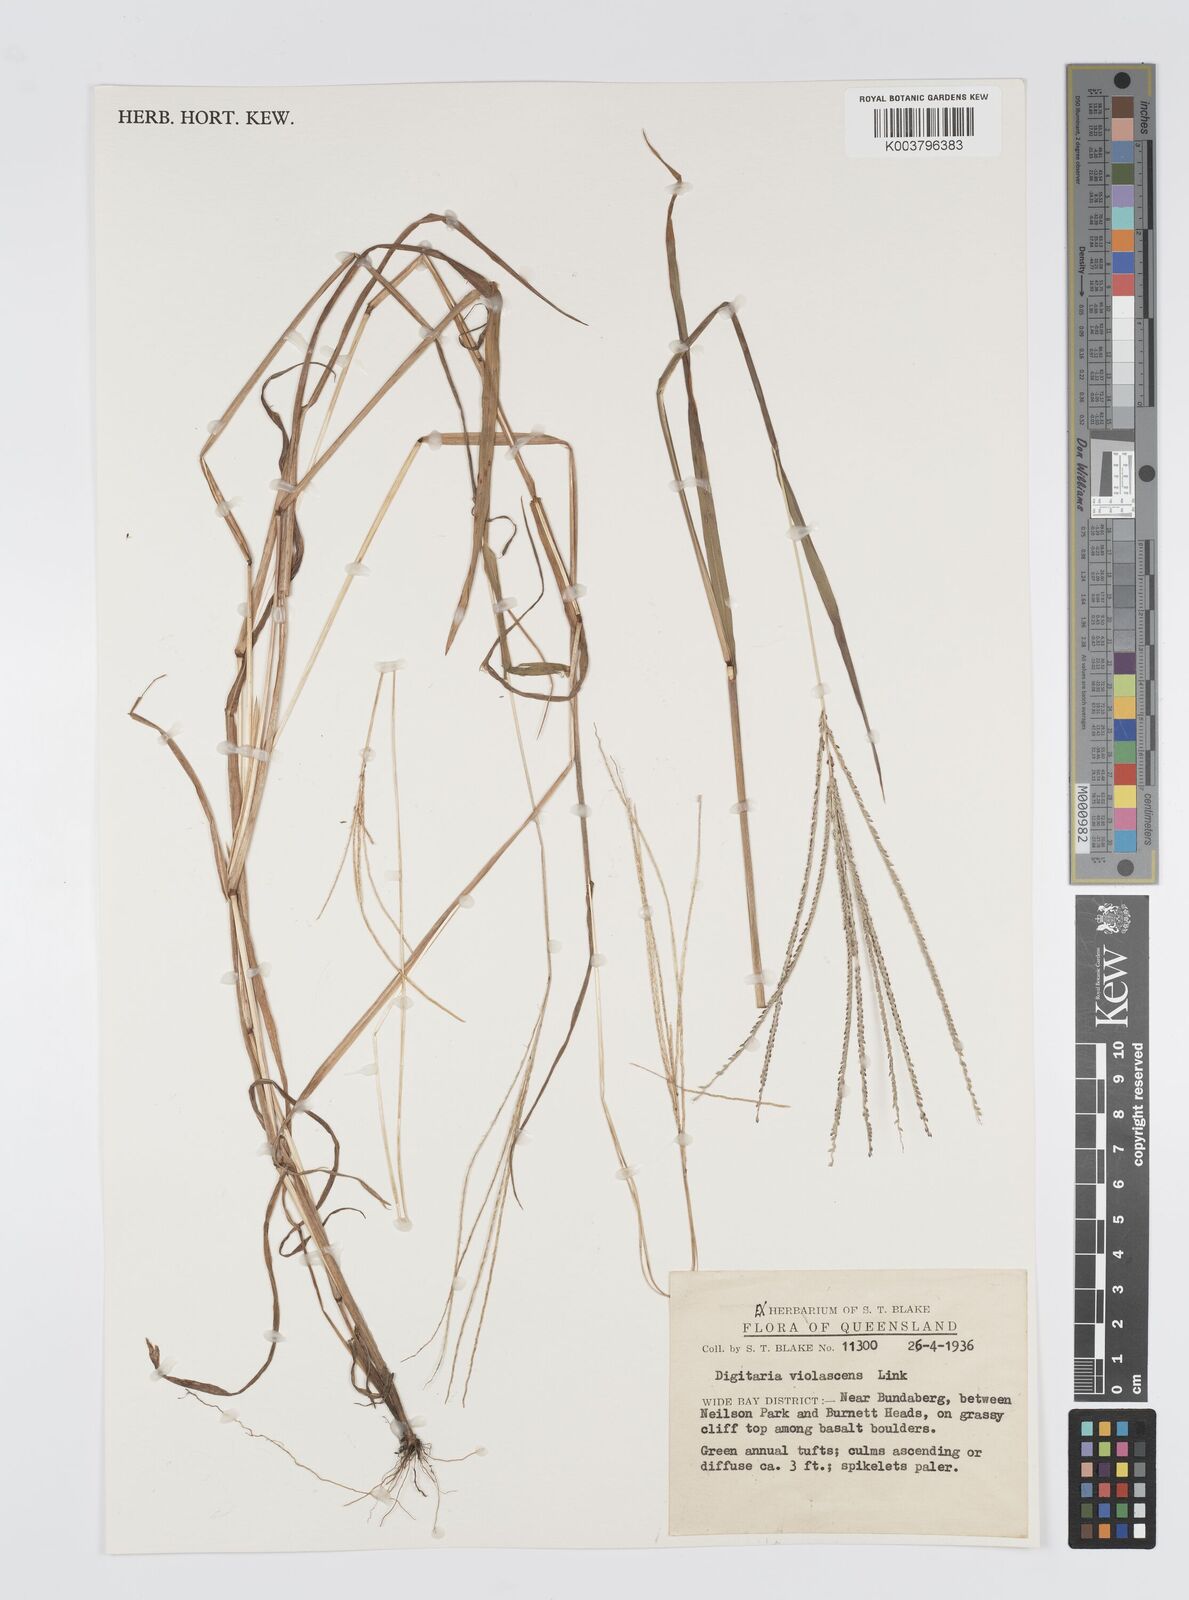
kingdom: Plantae
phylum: Tracheophyta
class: Liliopsida
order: Poales
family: Poaceae
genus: Digitaria
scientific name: Digitaria violascens
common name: Violet crabgrass
